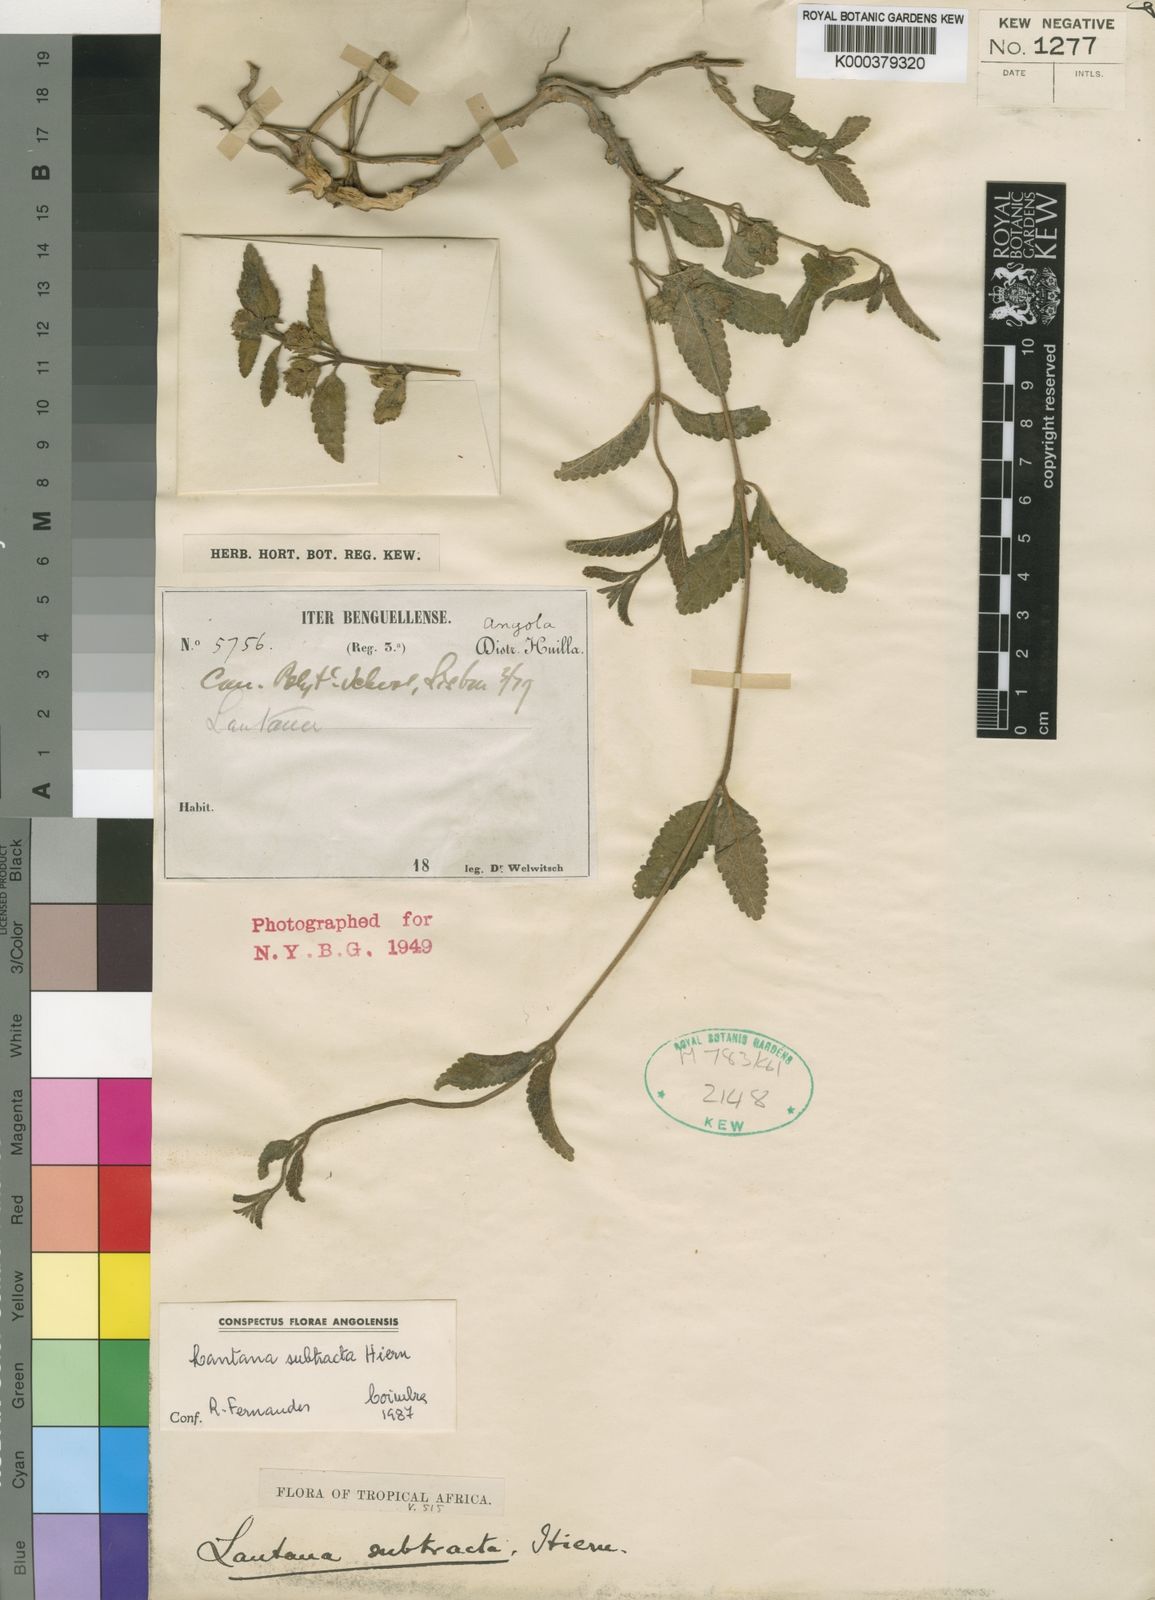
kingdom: Plantae
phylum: Tracheophyta
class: Magnoliopsida
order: Lamiales
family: Verbenaceae
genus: Lantana
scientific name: Lantana subtracta
